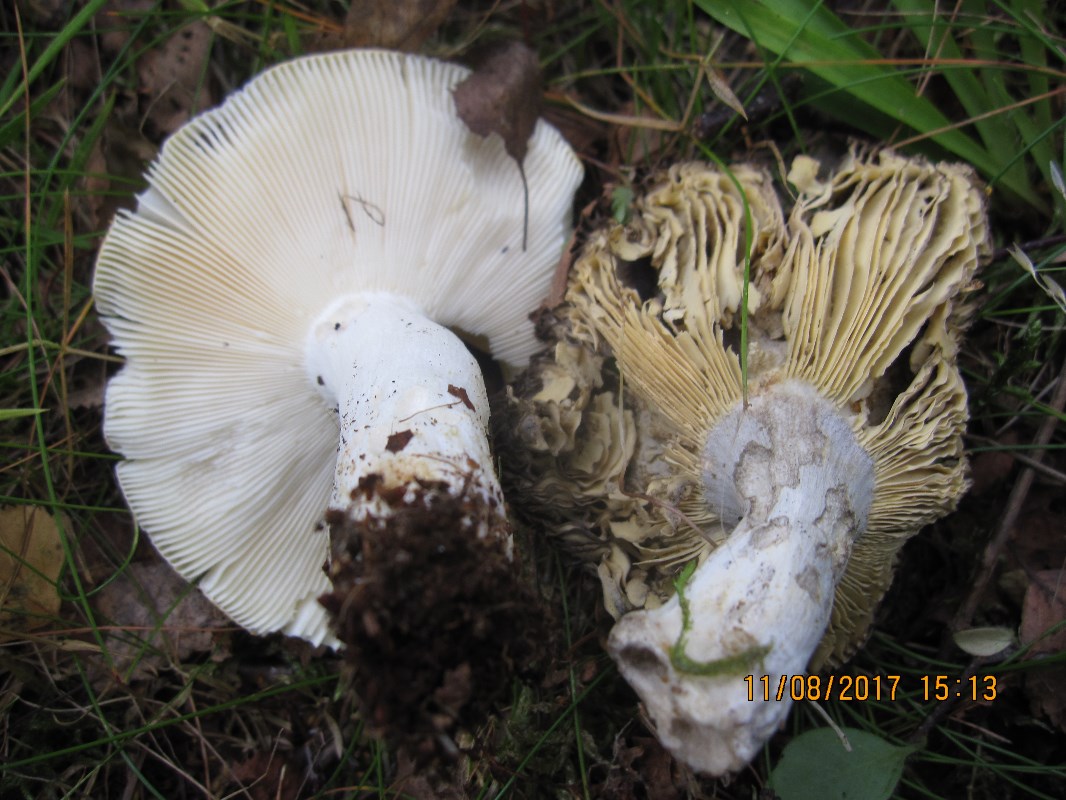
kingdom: Fungi
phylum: Basidiomycota
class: Agaricomycetes
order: Russulales
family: Russulaceae
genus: Russula
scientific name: Russula claroflava
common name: birke-skørhat
